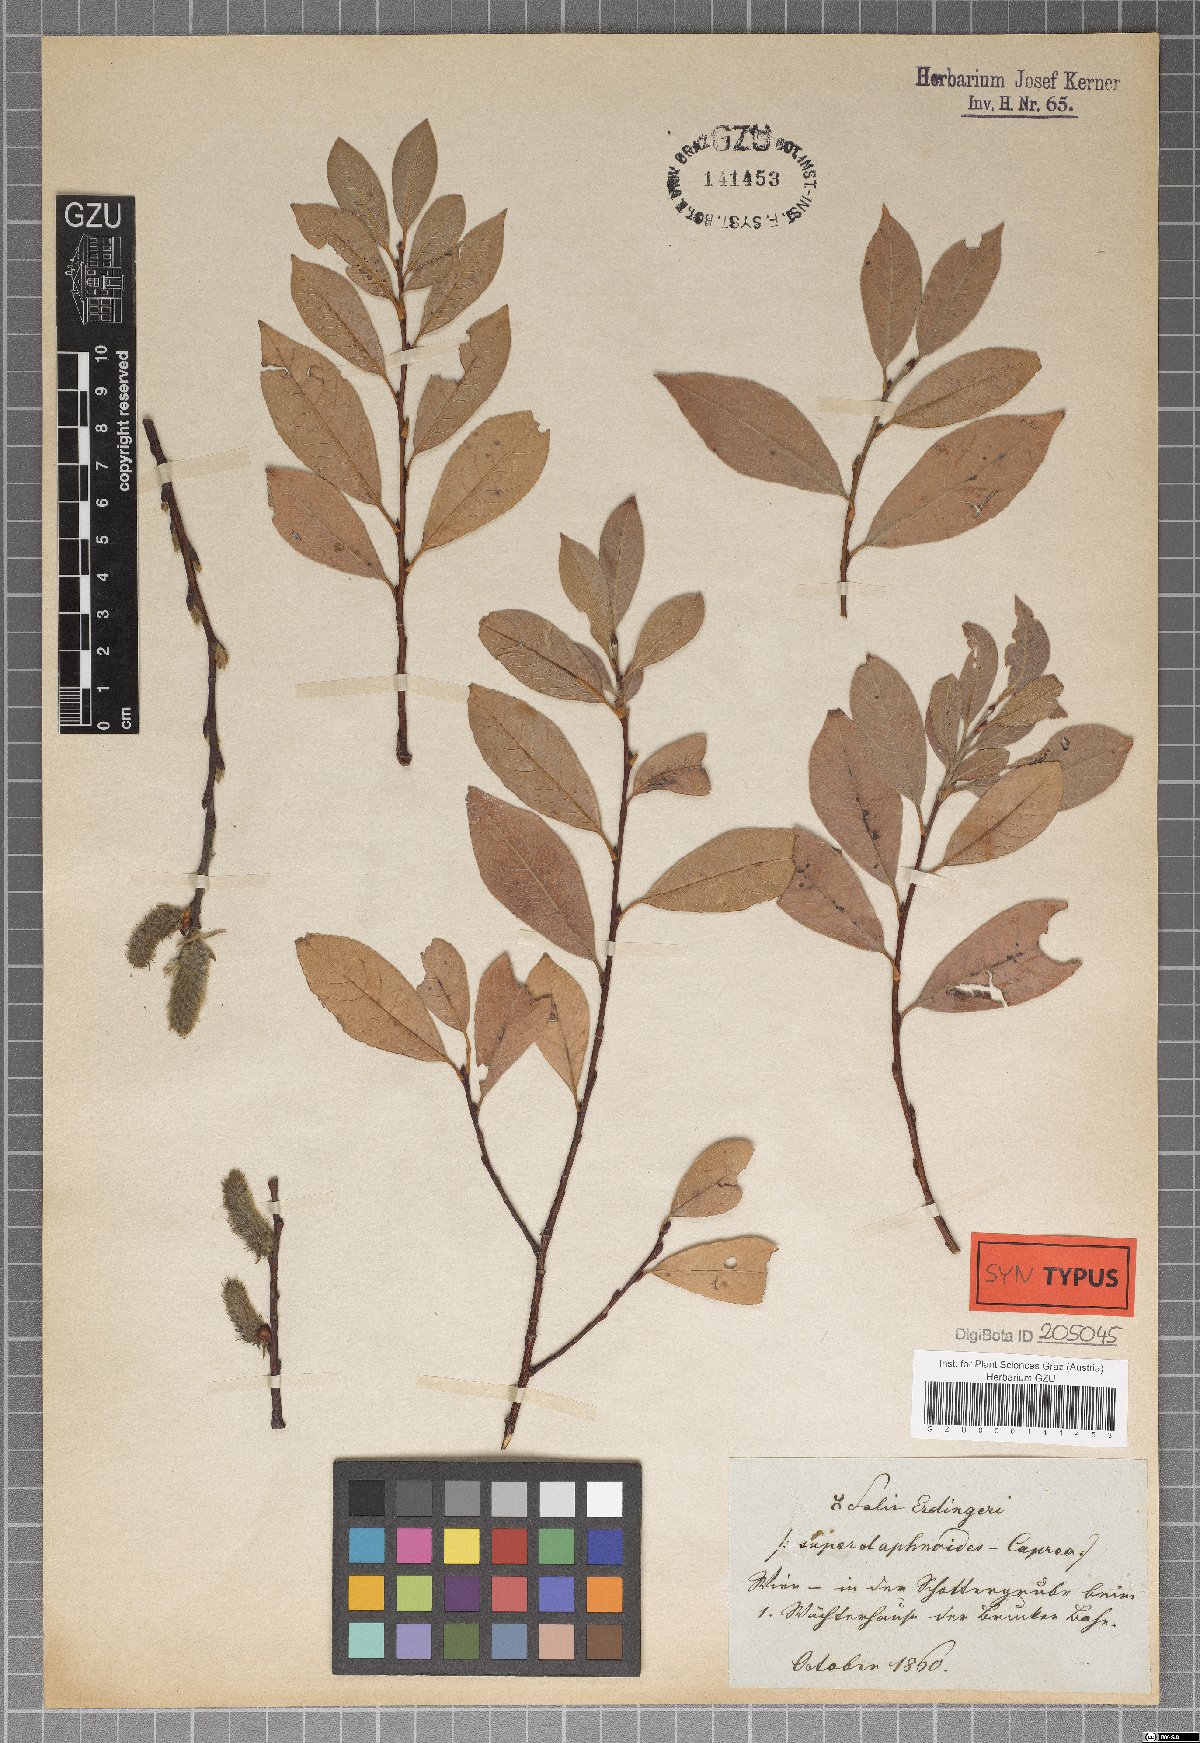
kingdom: Plantae
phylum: Tracheophyta
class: Magnoliopsida
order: Malpighiales
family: Salicaceae
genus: Salix
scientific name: Salix erdingeri
